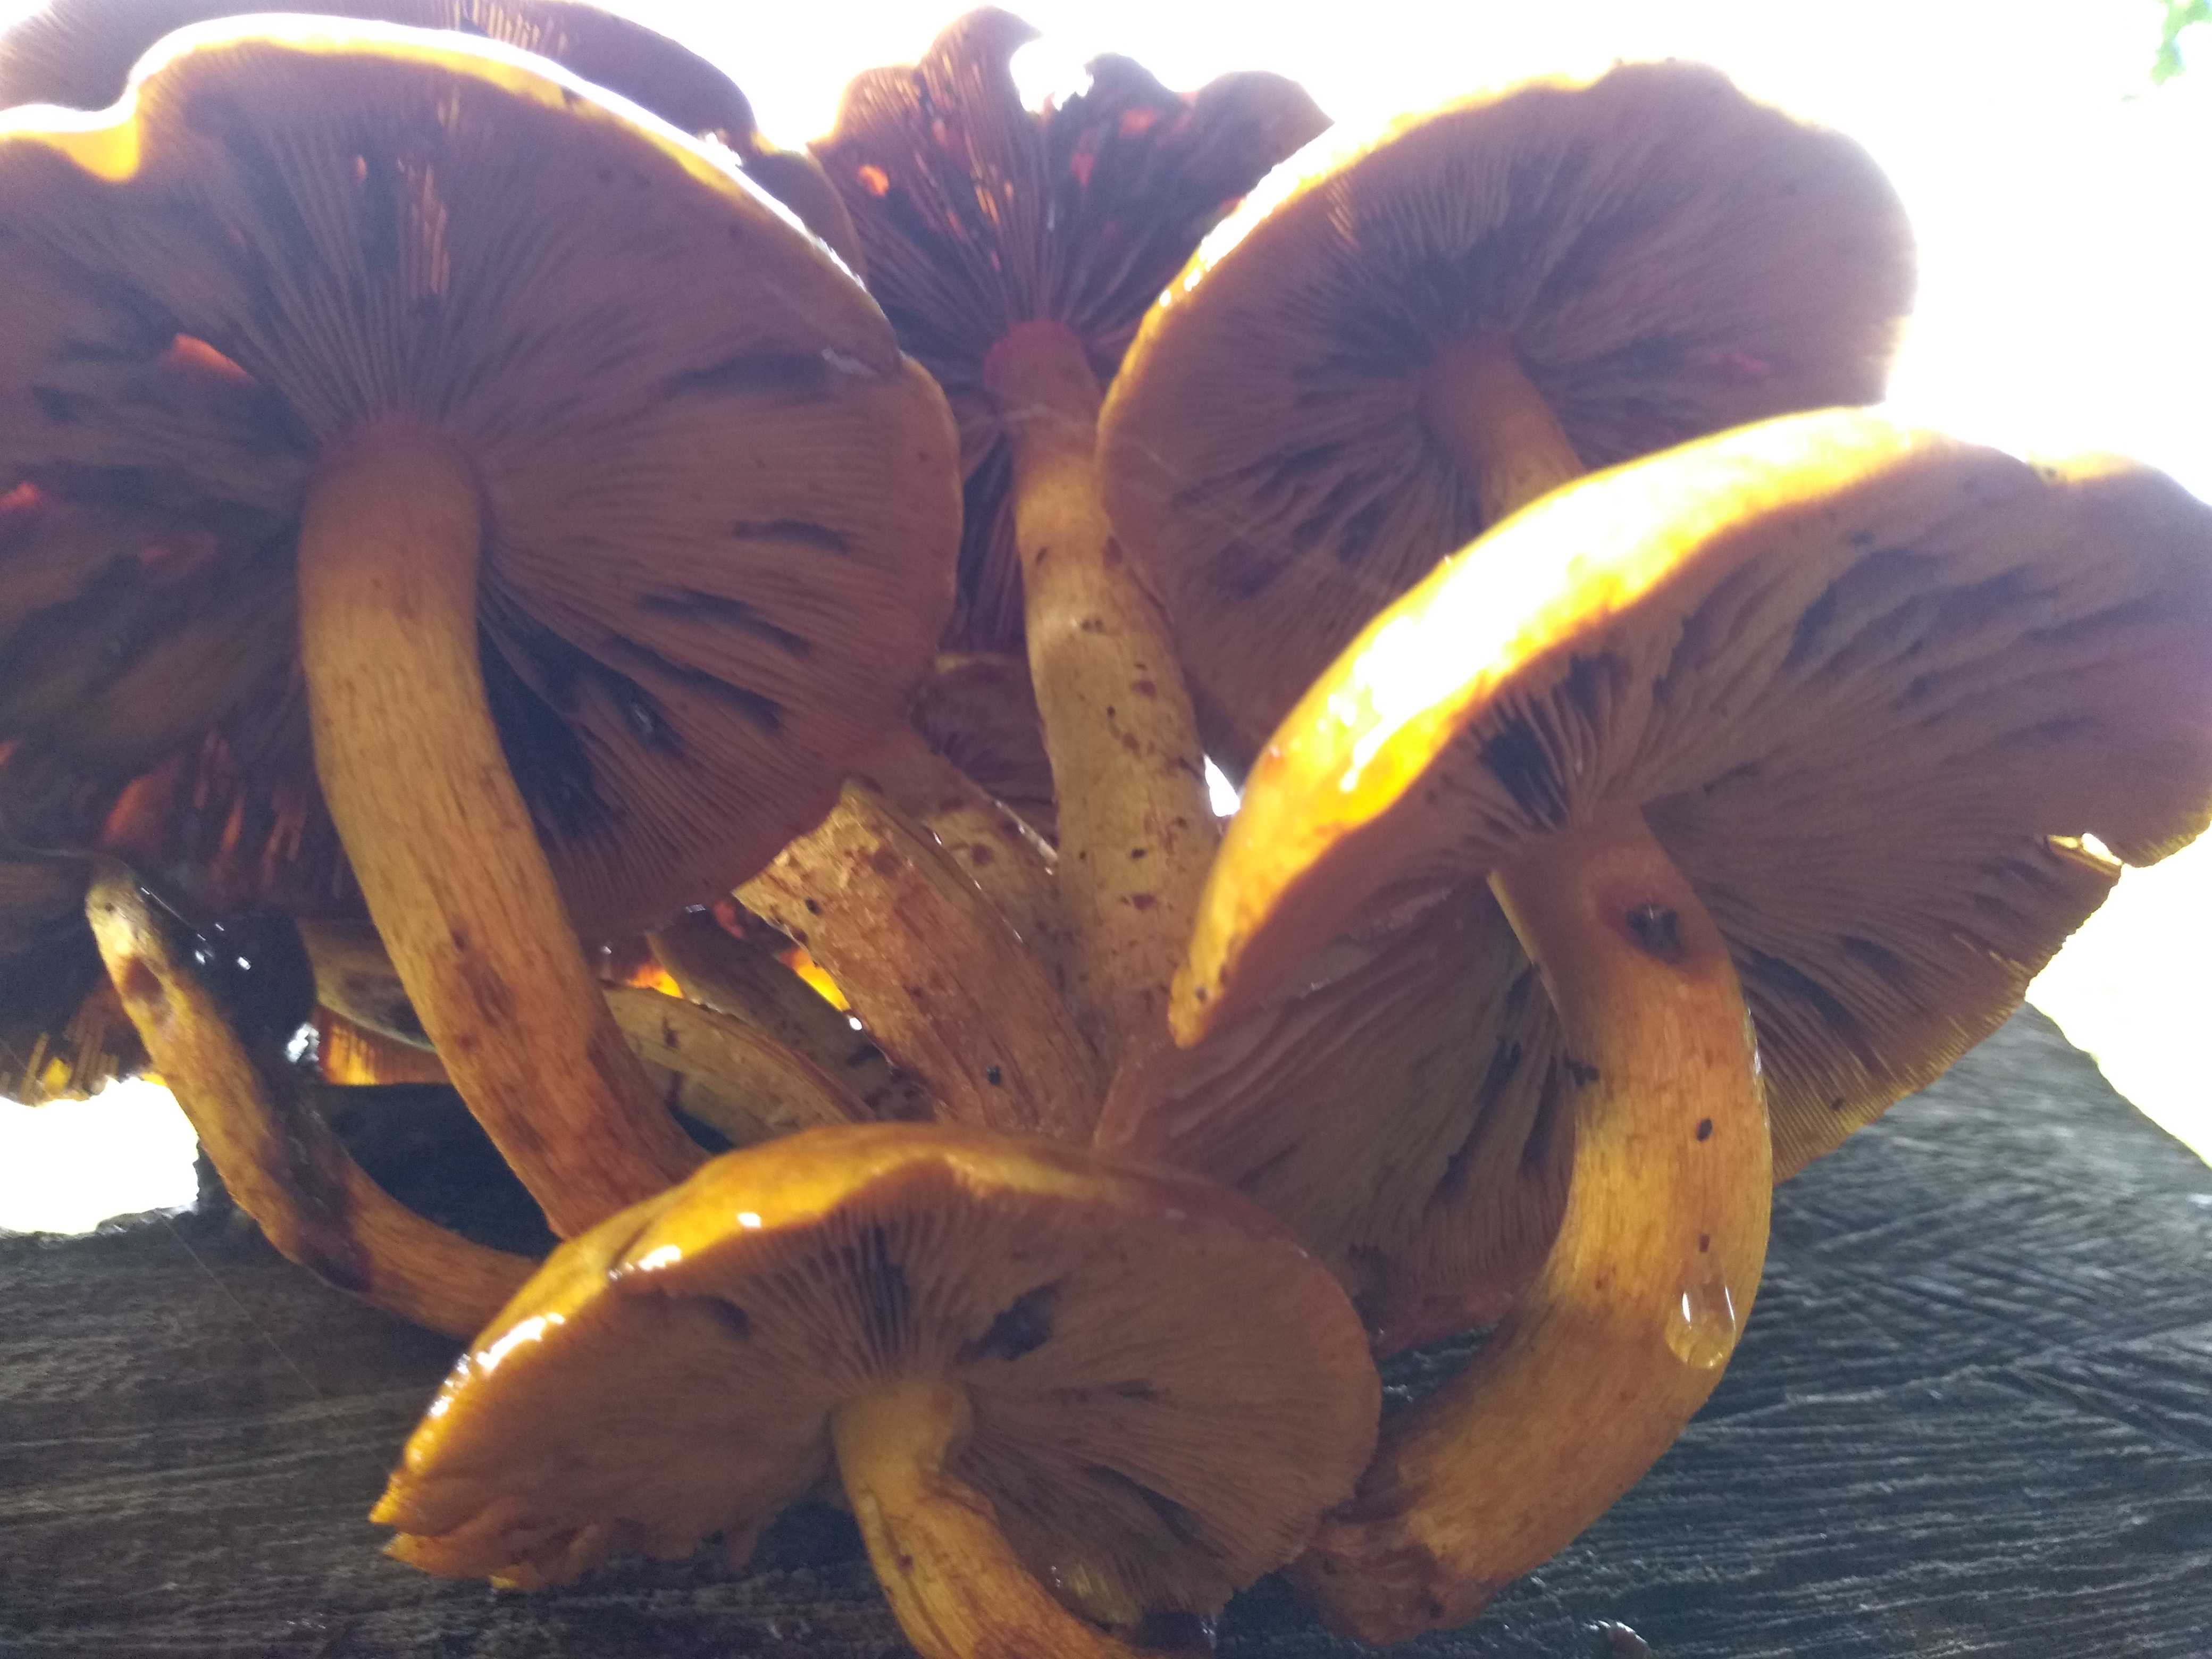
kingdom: Fungi
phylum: Basidiomycota
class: Agaricomycetes
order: Agaricales
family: Strophariaceae
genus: Pholiota
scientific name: Pholiota adiposa
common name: højtsiddende skælhat
